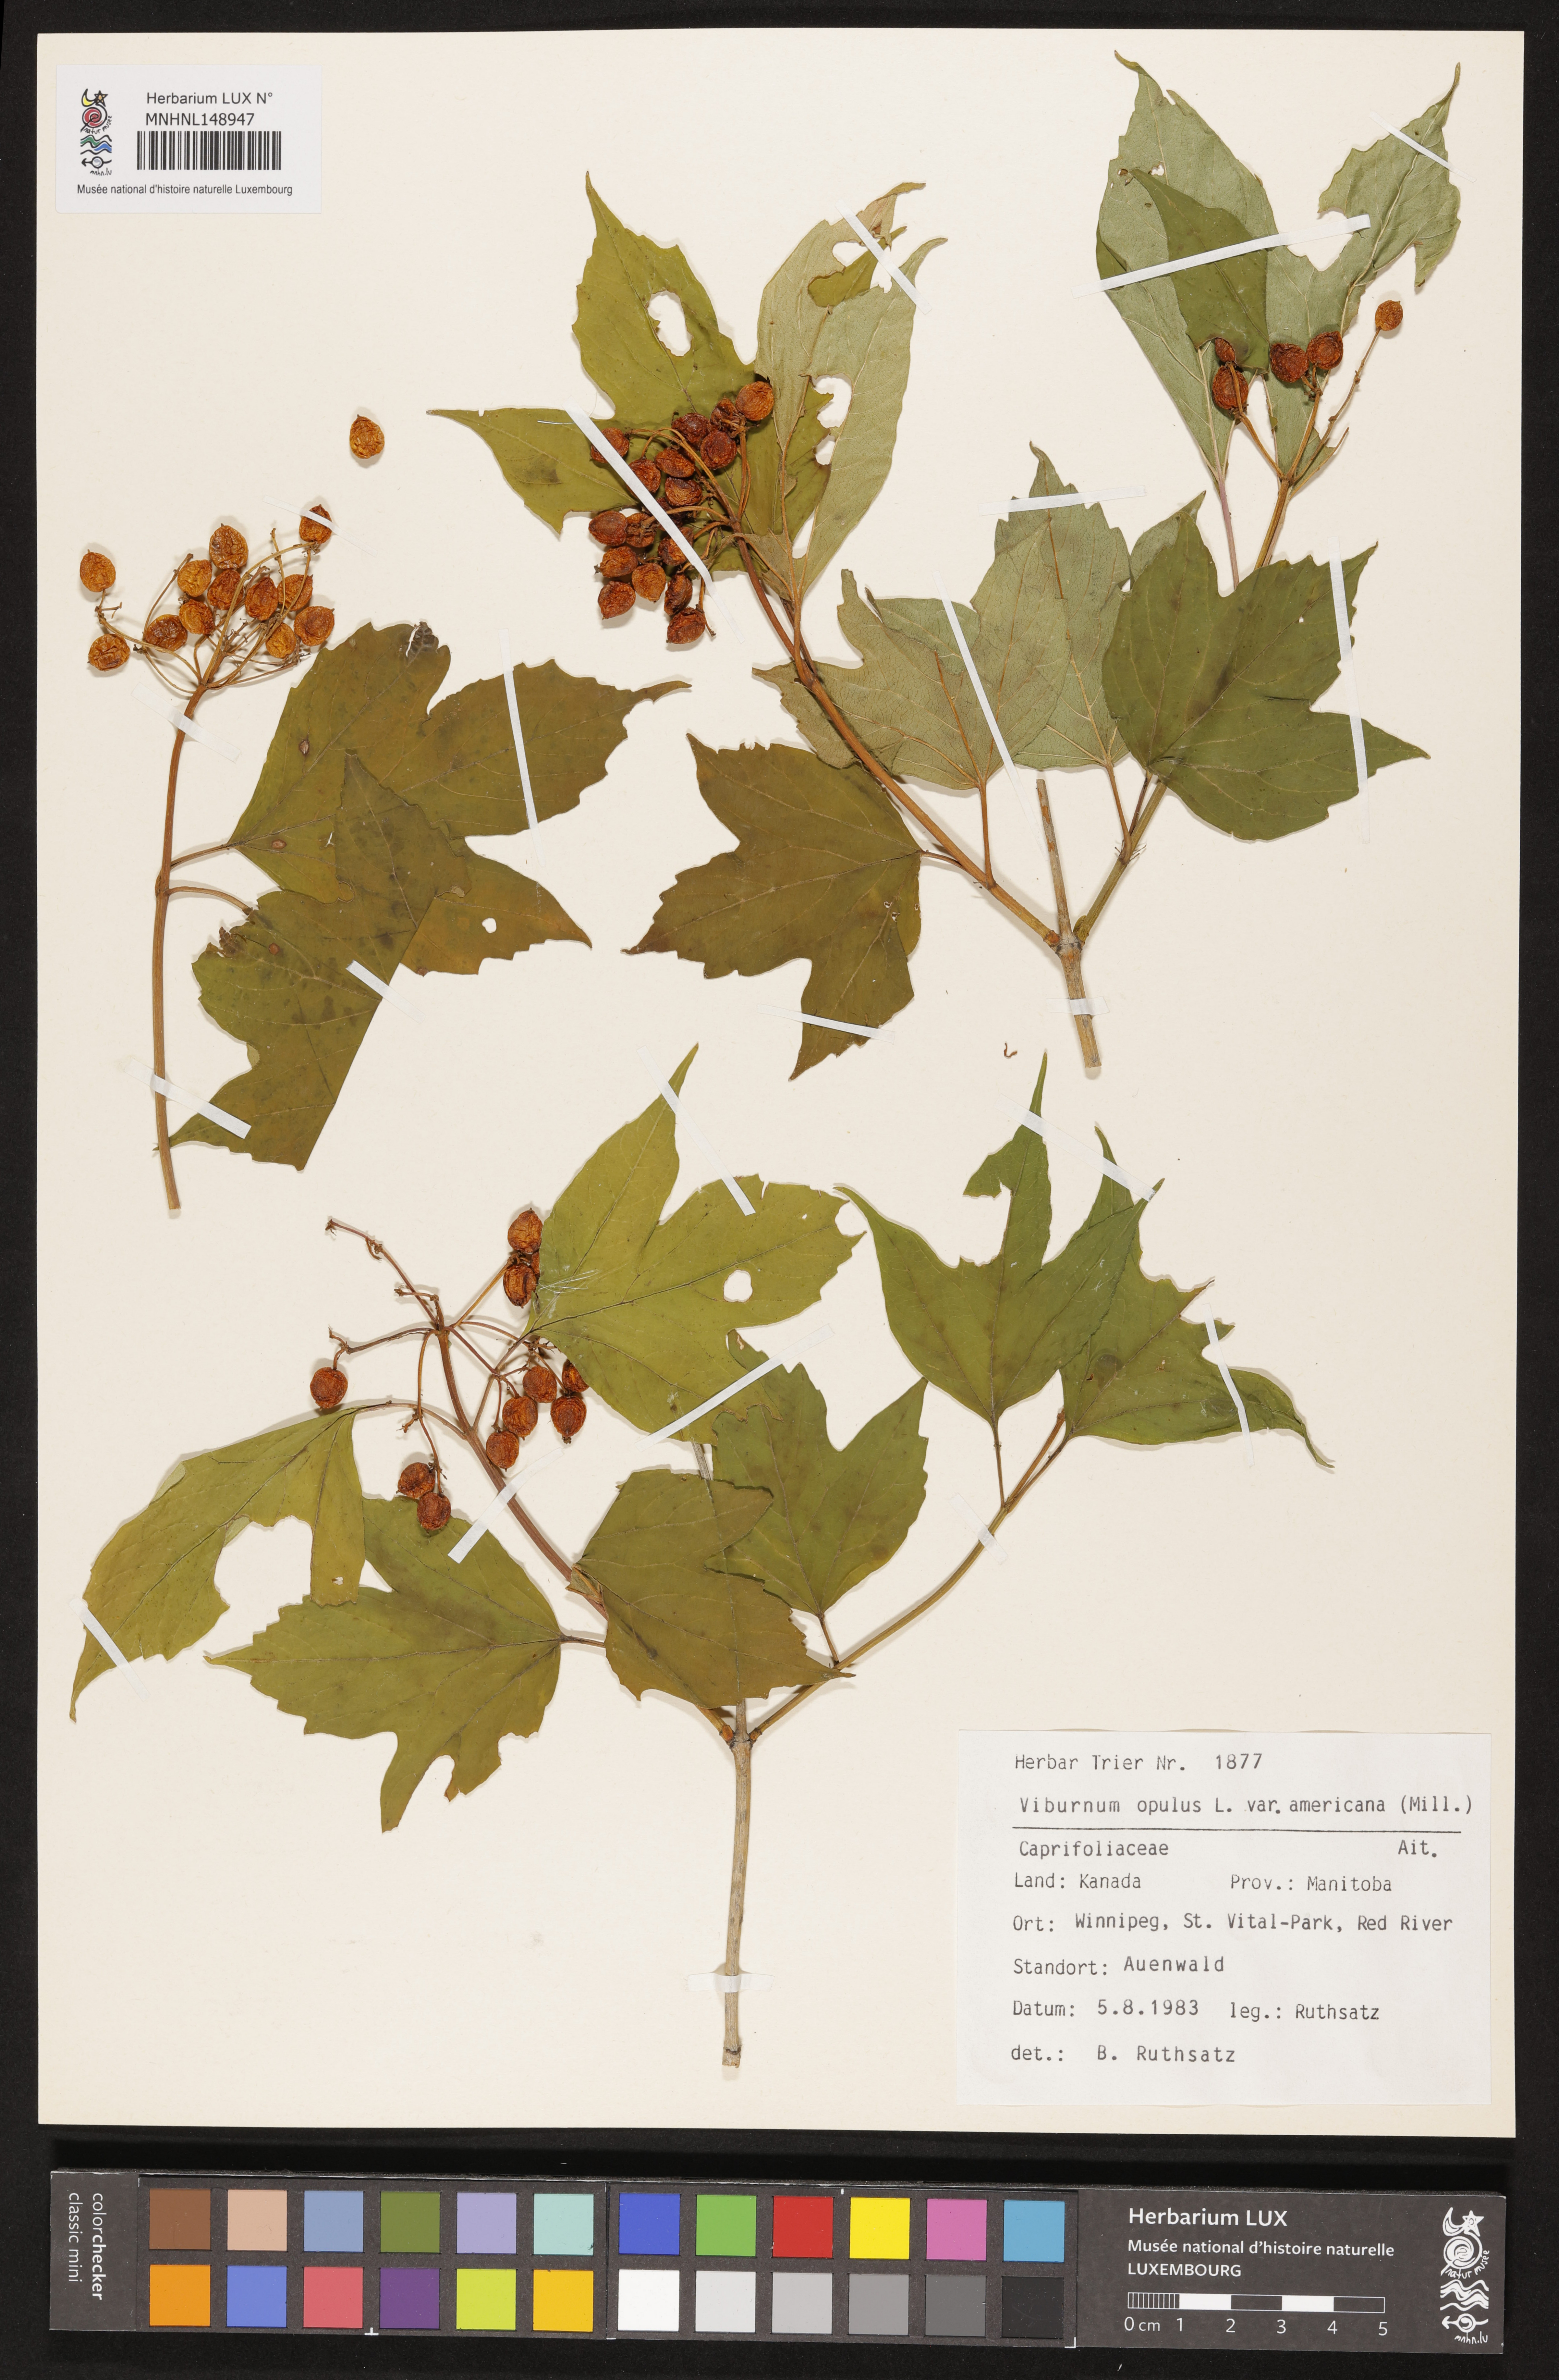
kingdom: Plantae
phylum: Tracheophyta
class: Magnoliopsida
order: Dipsacales
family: Viburnaceae
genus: Viburnum
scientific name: Viburnum trilobum
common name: American cranberrybush
